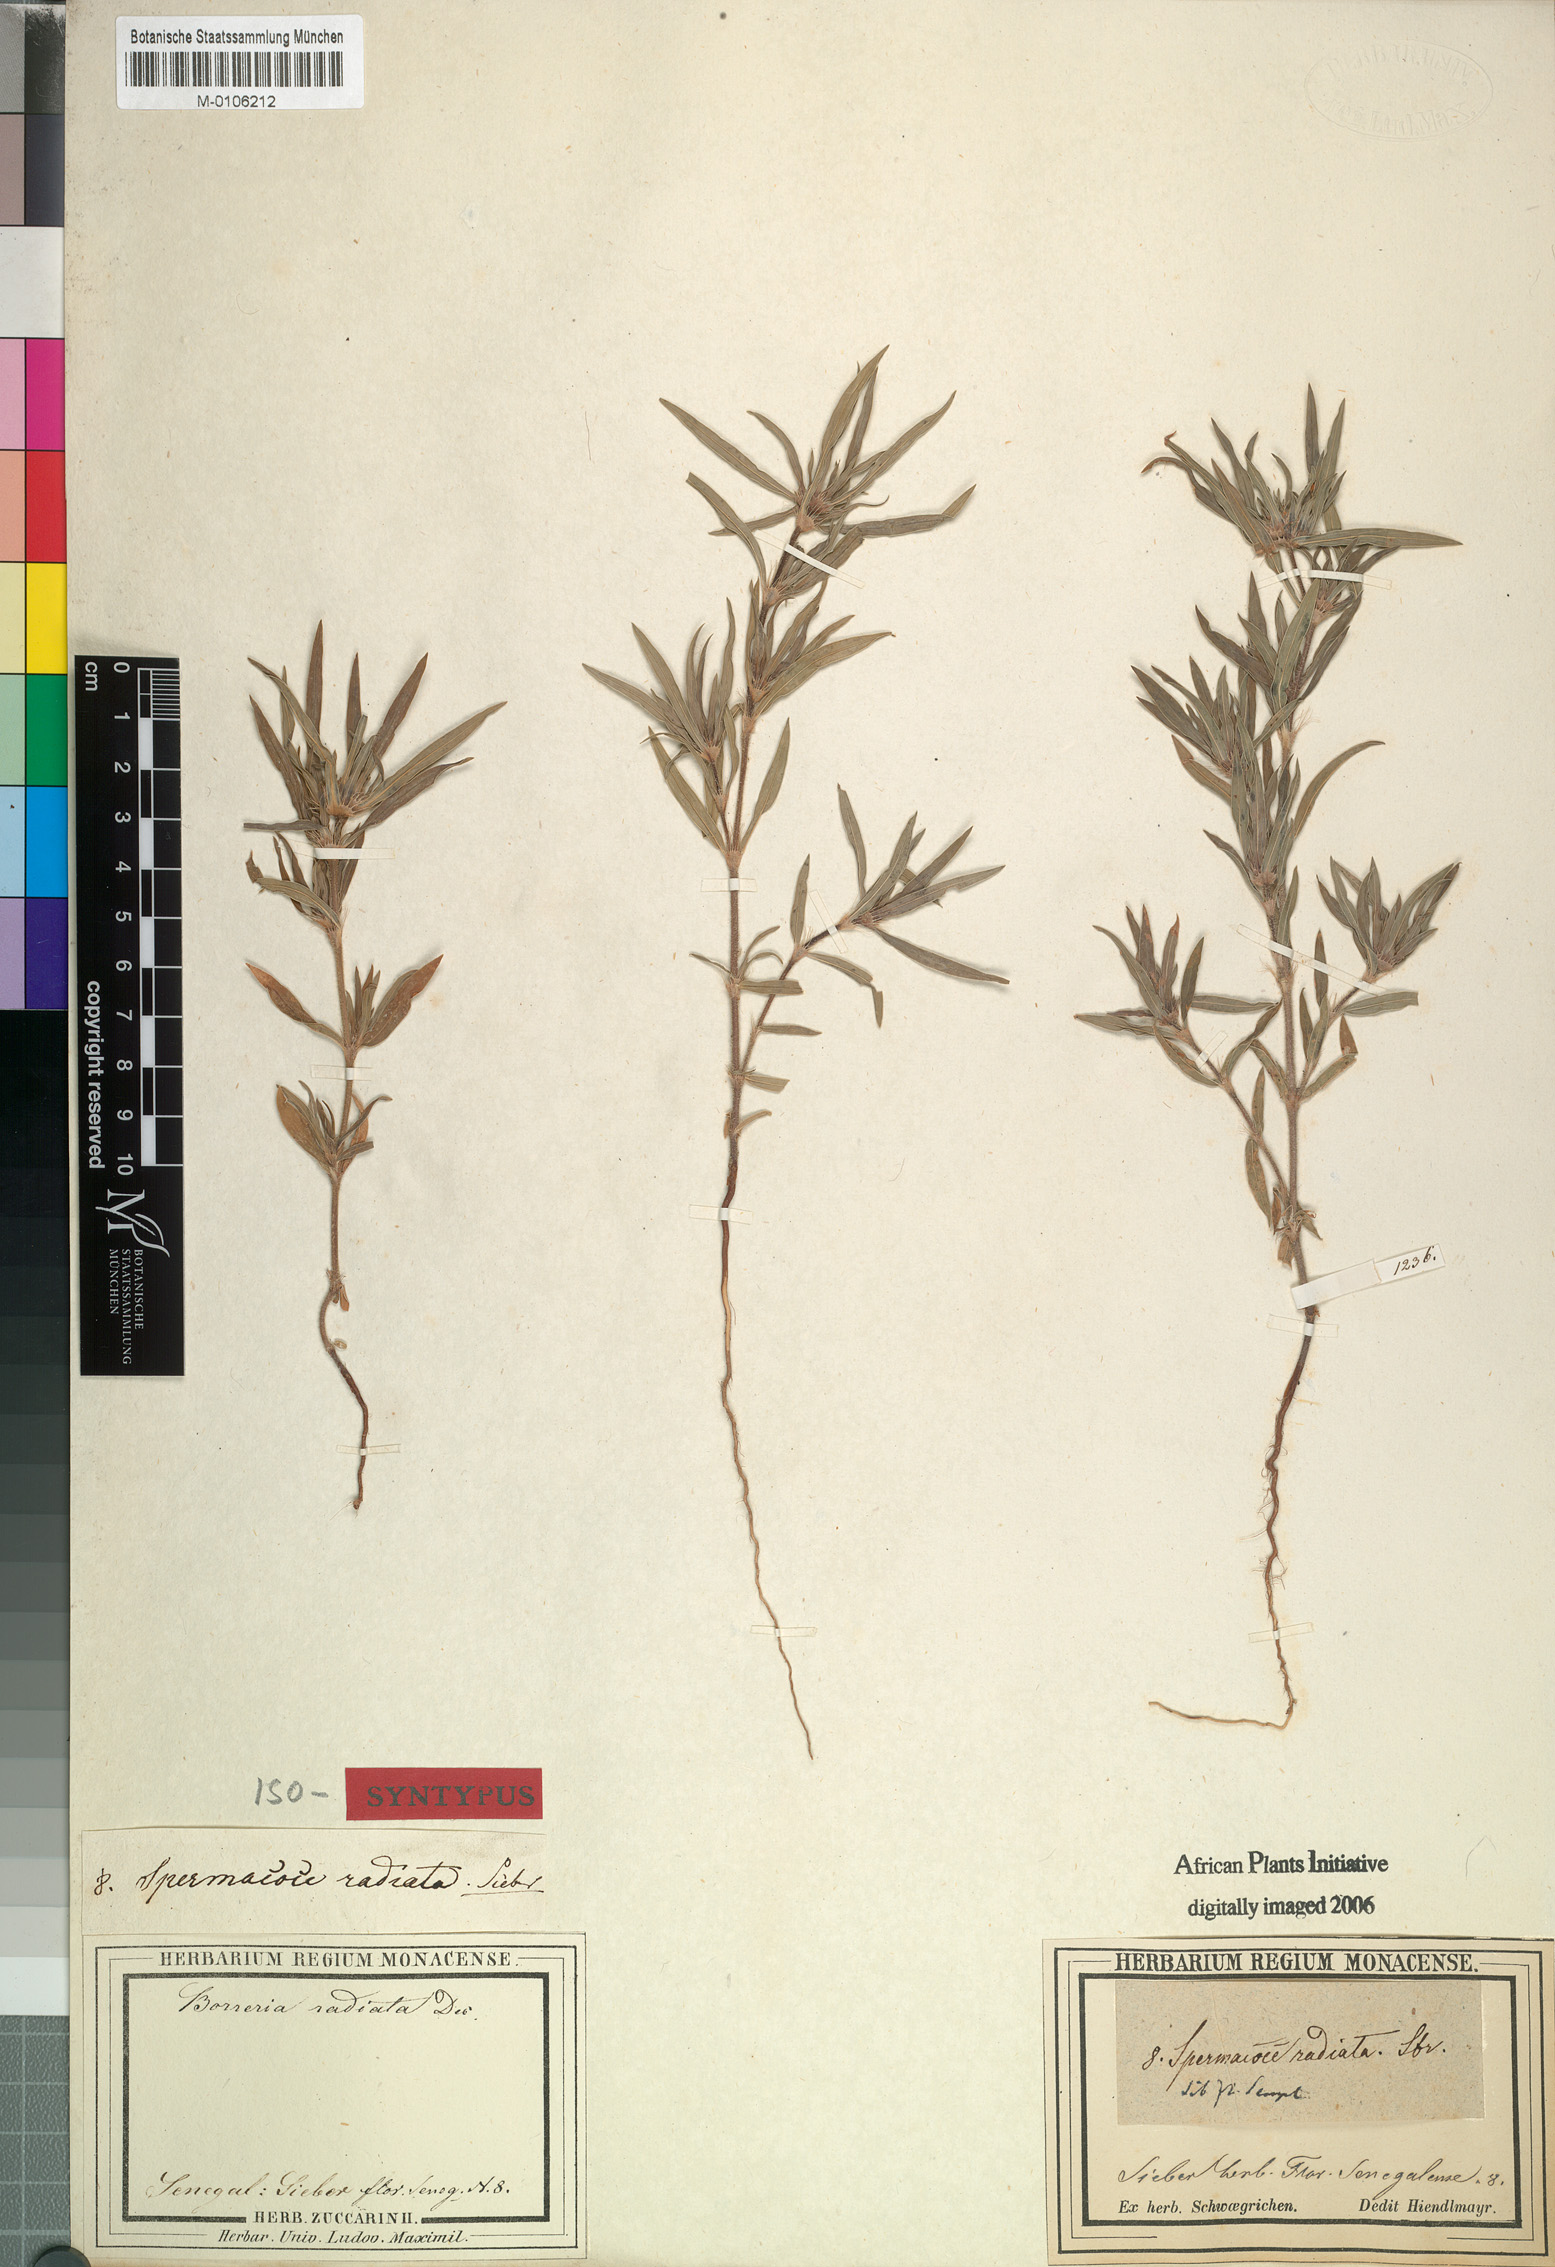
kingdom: Plantae
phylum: Tracheophyta
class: Magnoliopsida
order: Gentianales
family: Rubiaceae
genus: Spermacoce
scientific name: Spermacoce radiata
